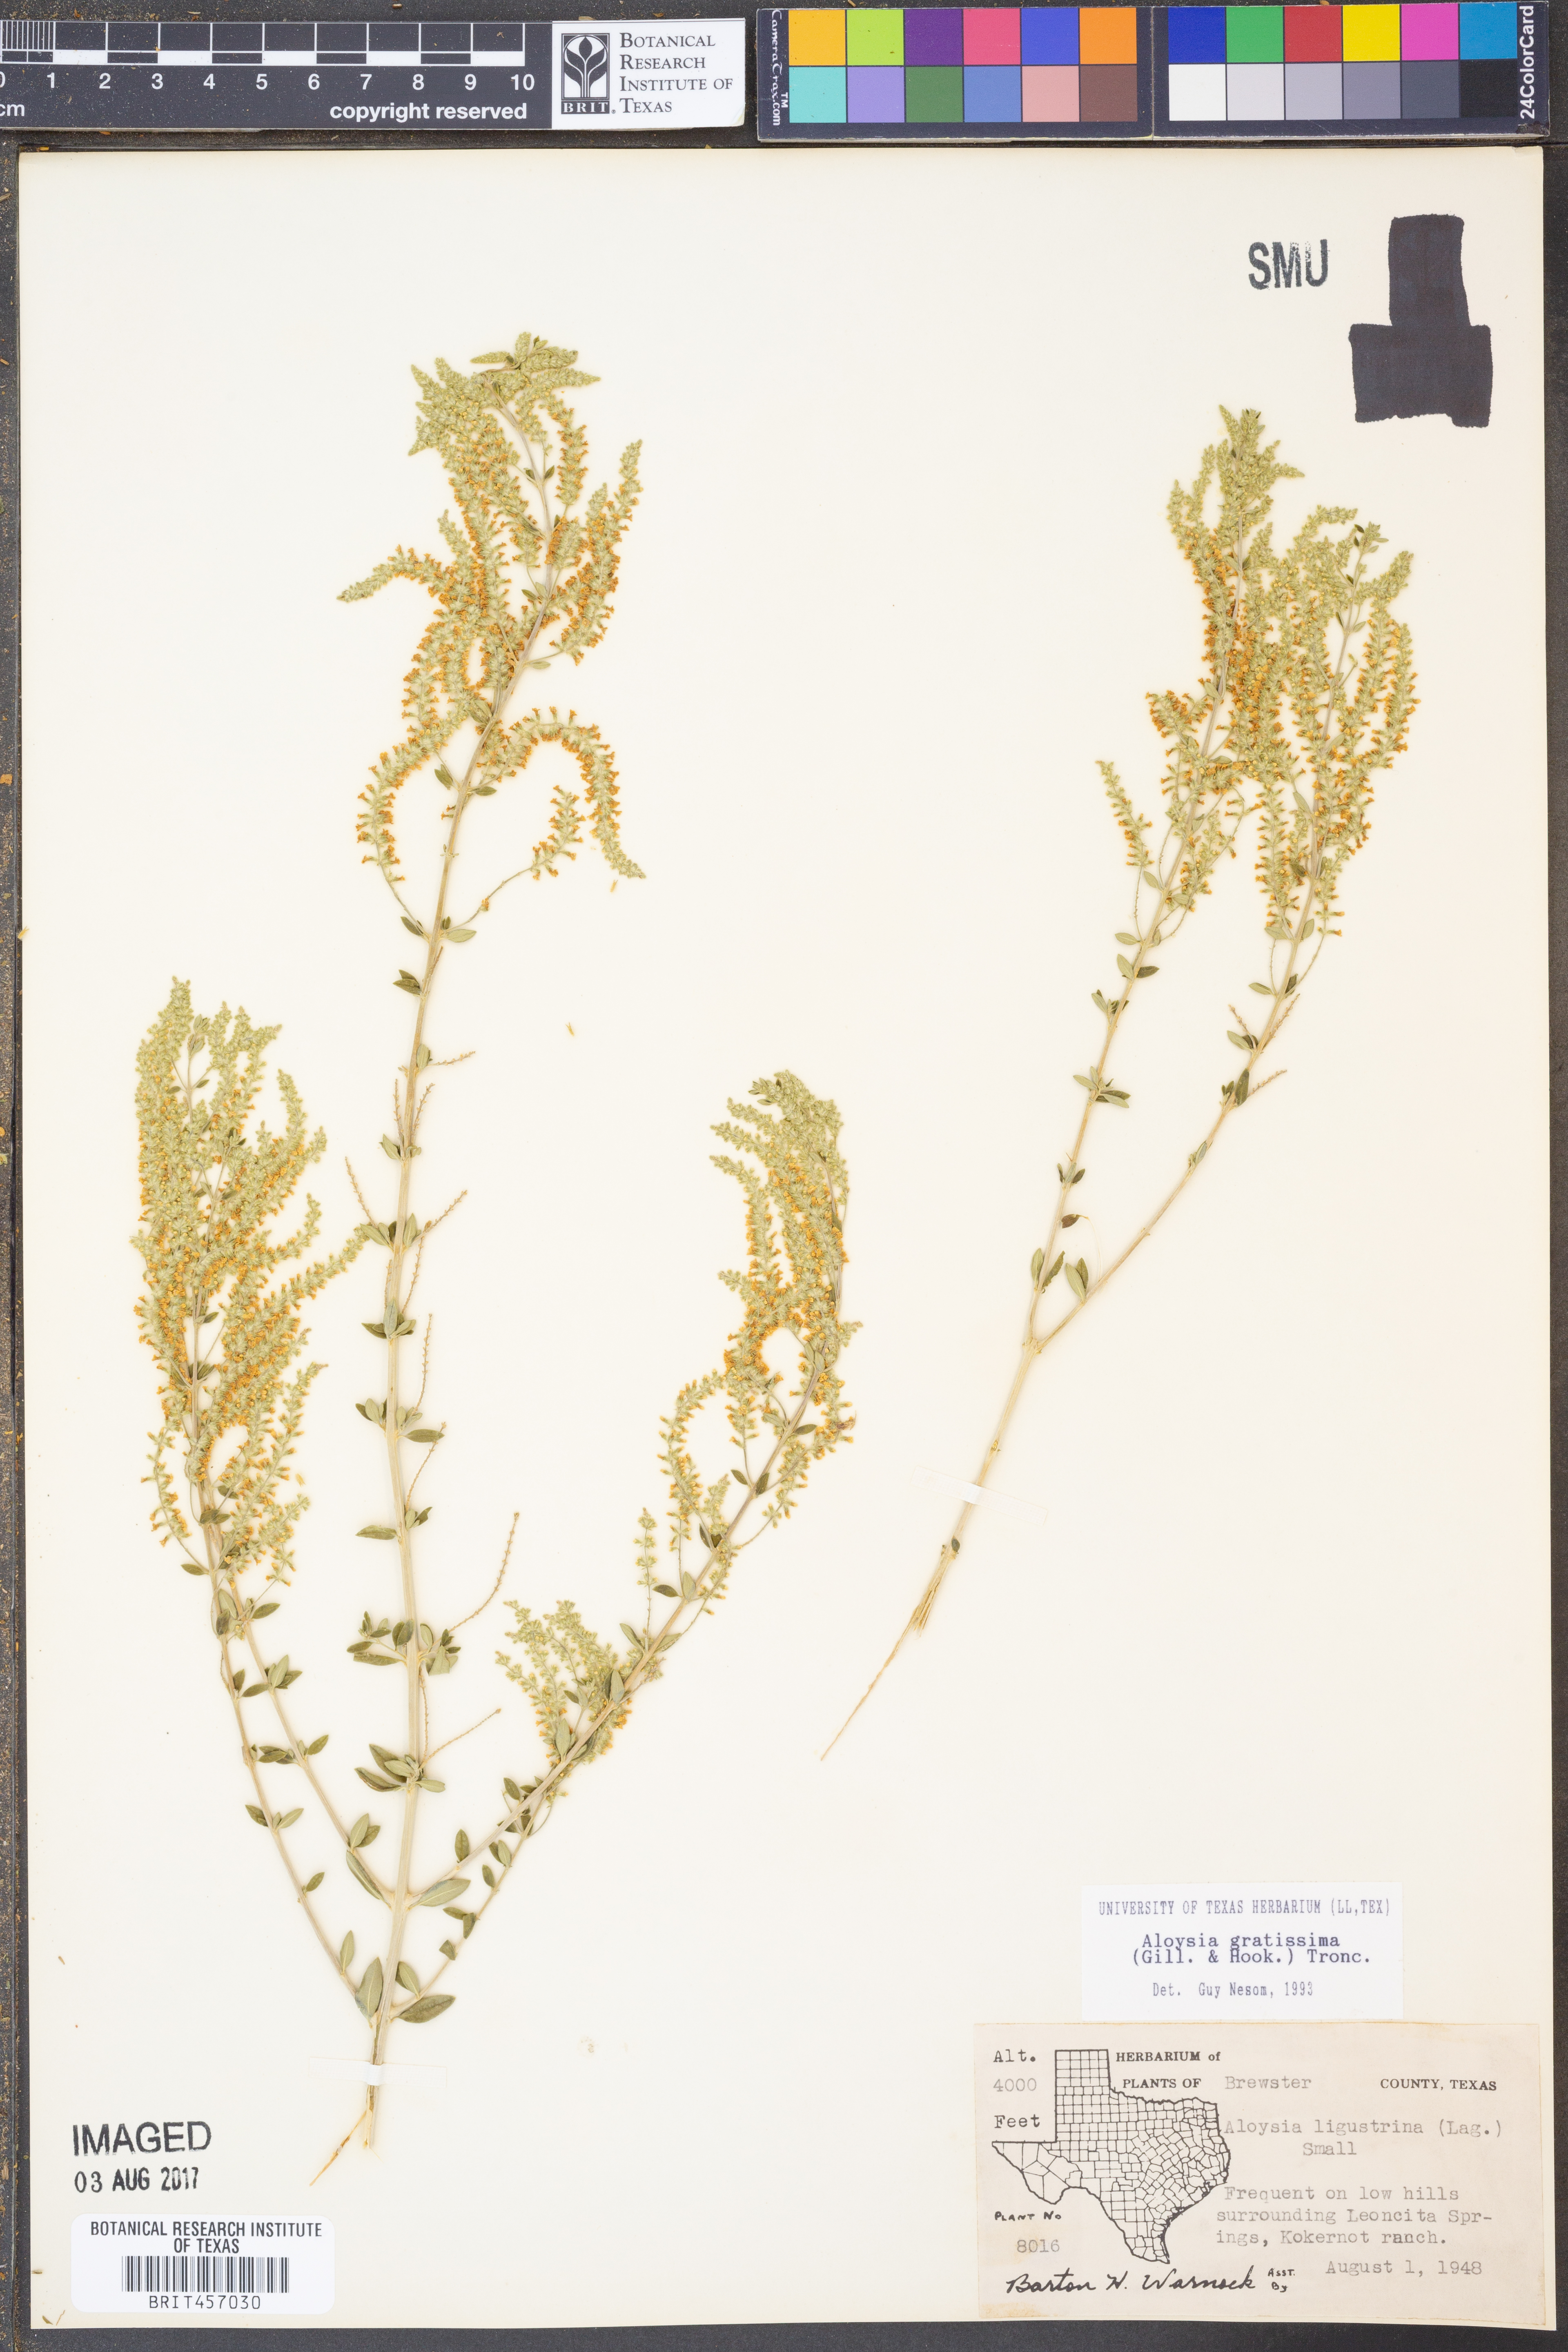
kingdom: Plantae
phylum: Tracheophyta
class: Magnoliopsida
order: Lamiales
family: Verbenaceae
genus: Aloysia
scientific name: Aloysia gratissima
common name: Common bee-brush
